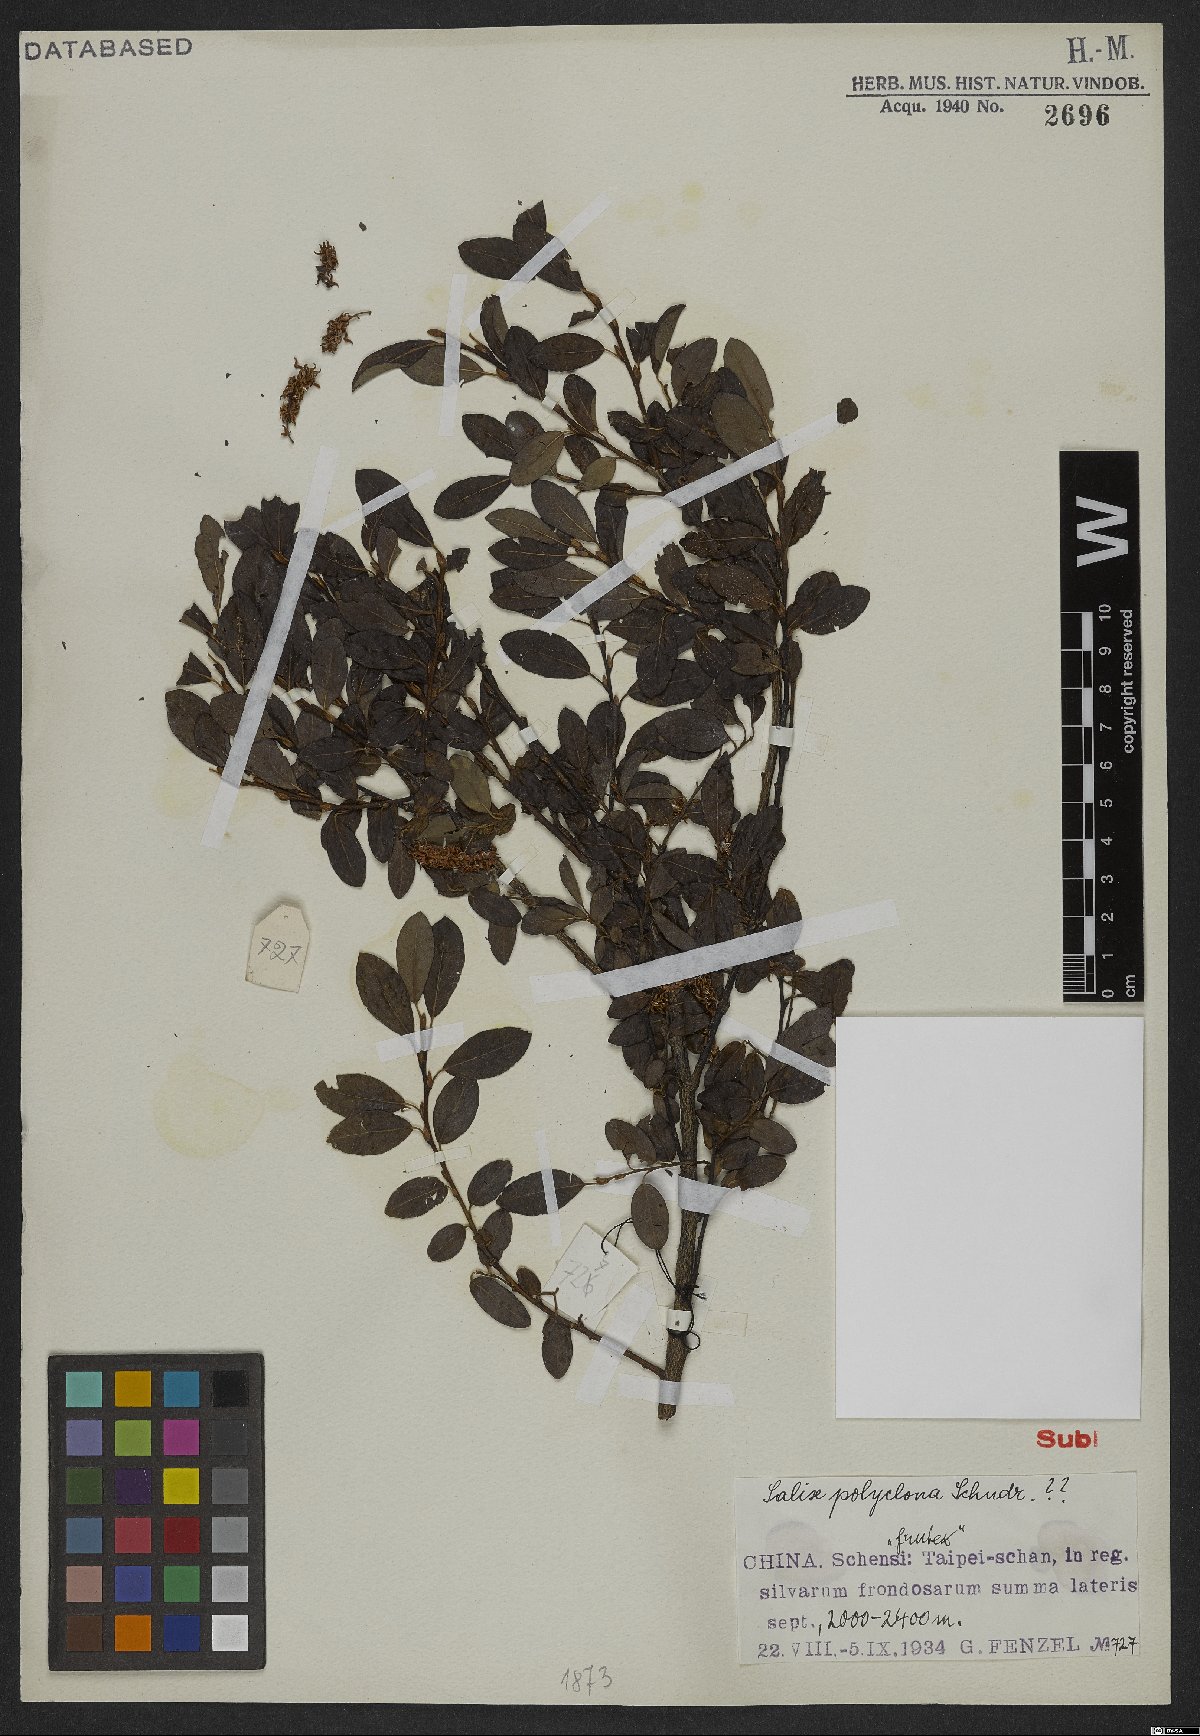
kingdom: Plantae
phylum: Tracheophyta
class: Magnoliopsida
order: Malpighiales
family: Salicaceae
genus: Salix
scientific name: Salix polyclona
